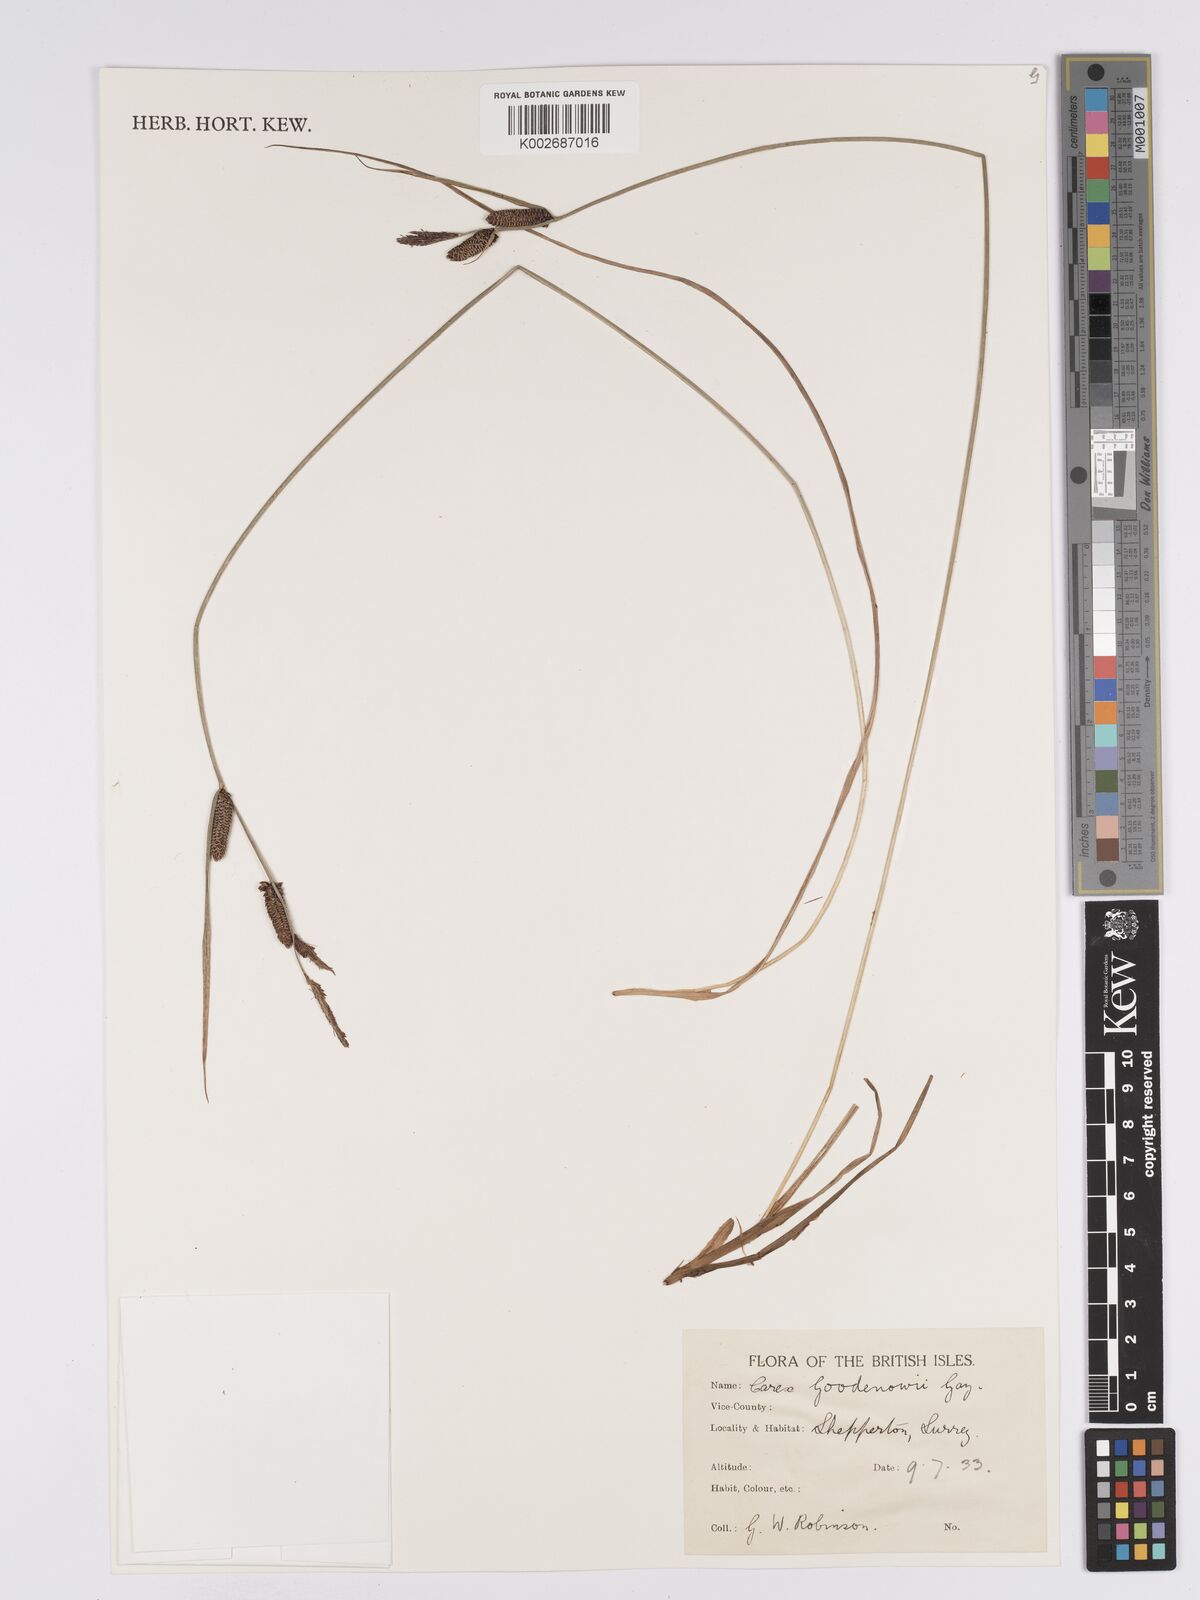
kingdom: Plantae
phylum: Tracheophyta
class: Liliopsida
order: Poales
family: Cyperaceae
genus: Carex
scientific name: Carex nigra
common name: Common sedge
